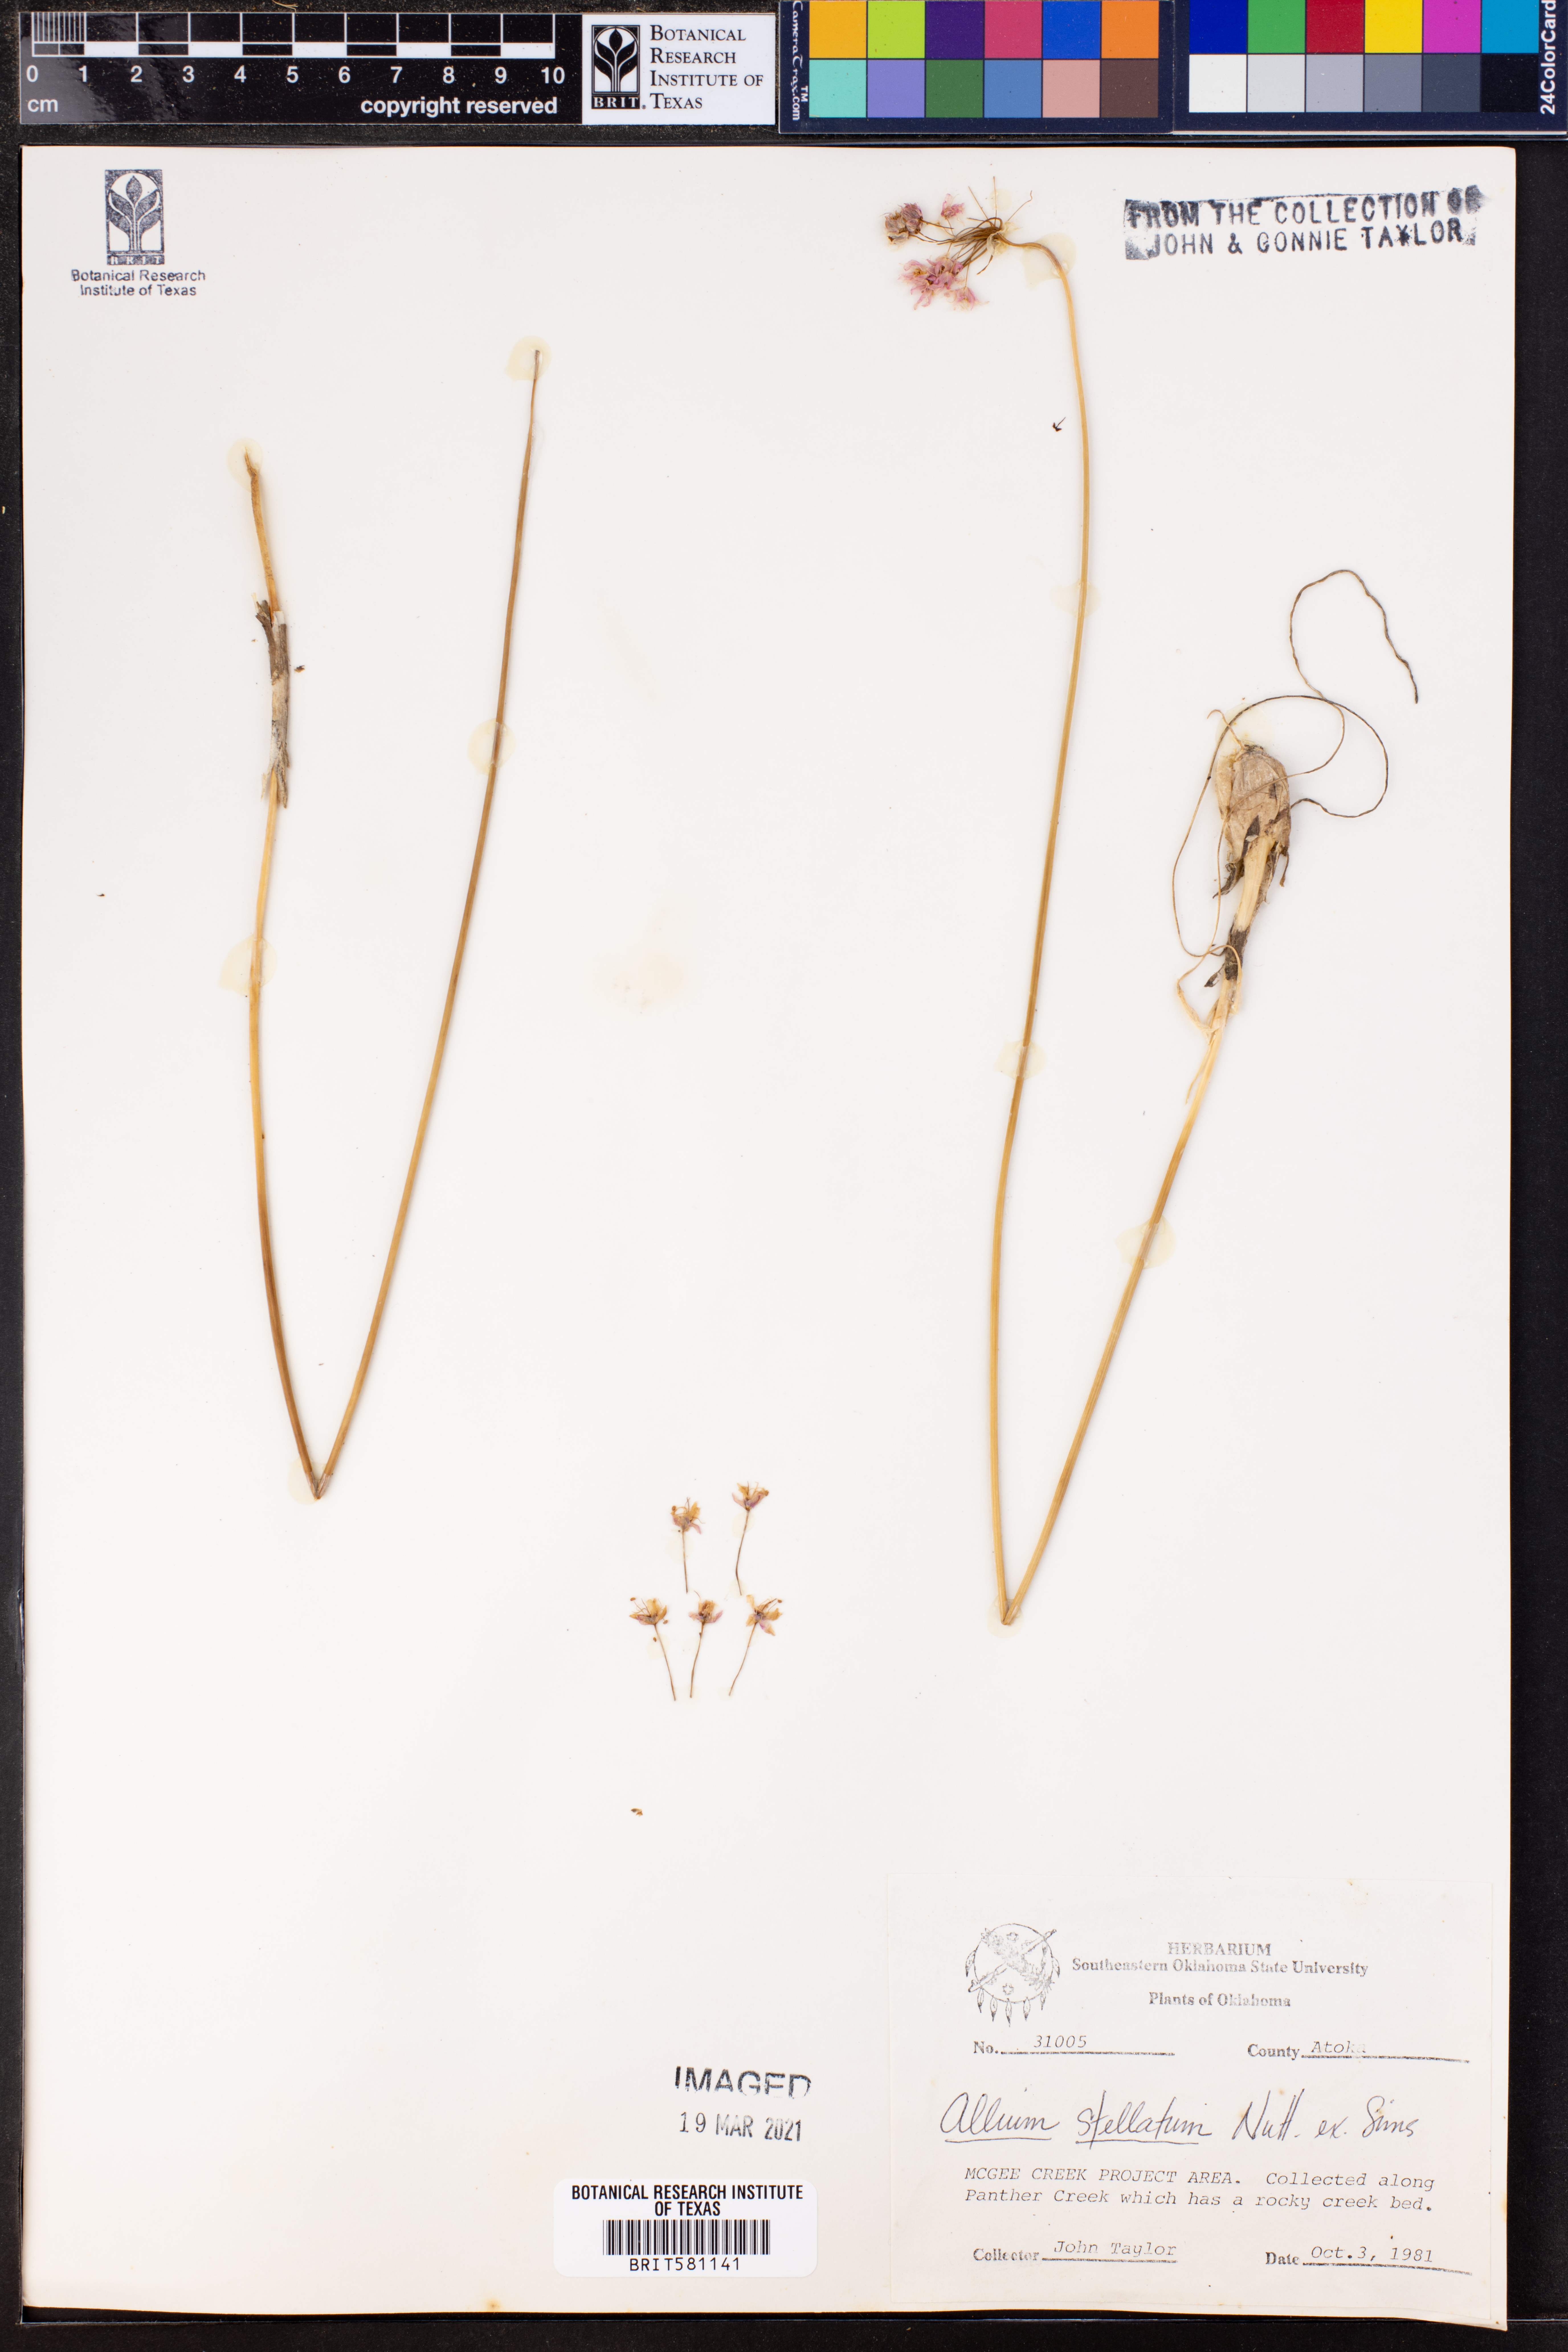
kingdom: Plantae
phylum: Tracheophyta
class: Liliopsida
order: Asparagales
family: Amaryllidaceae
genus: Allium
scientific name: Allium stellatum
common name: Autumn onion
